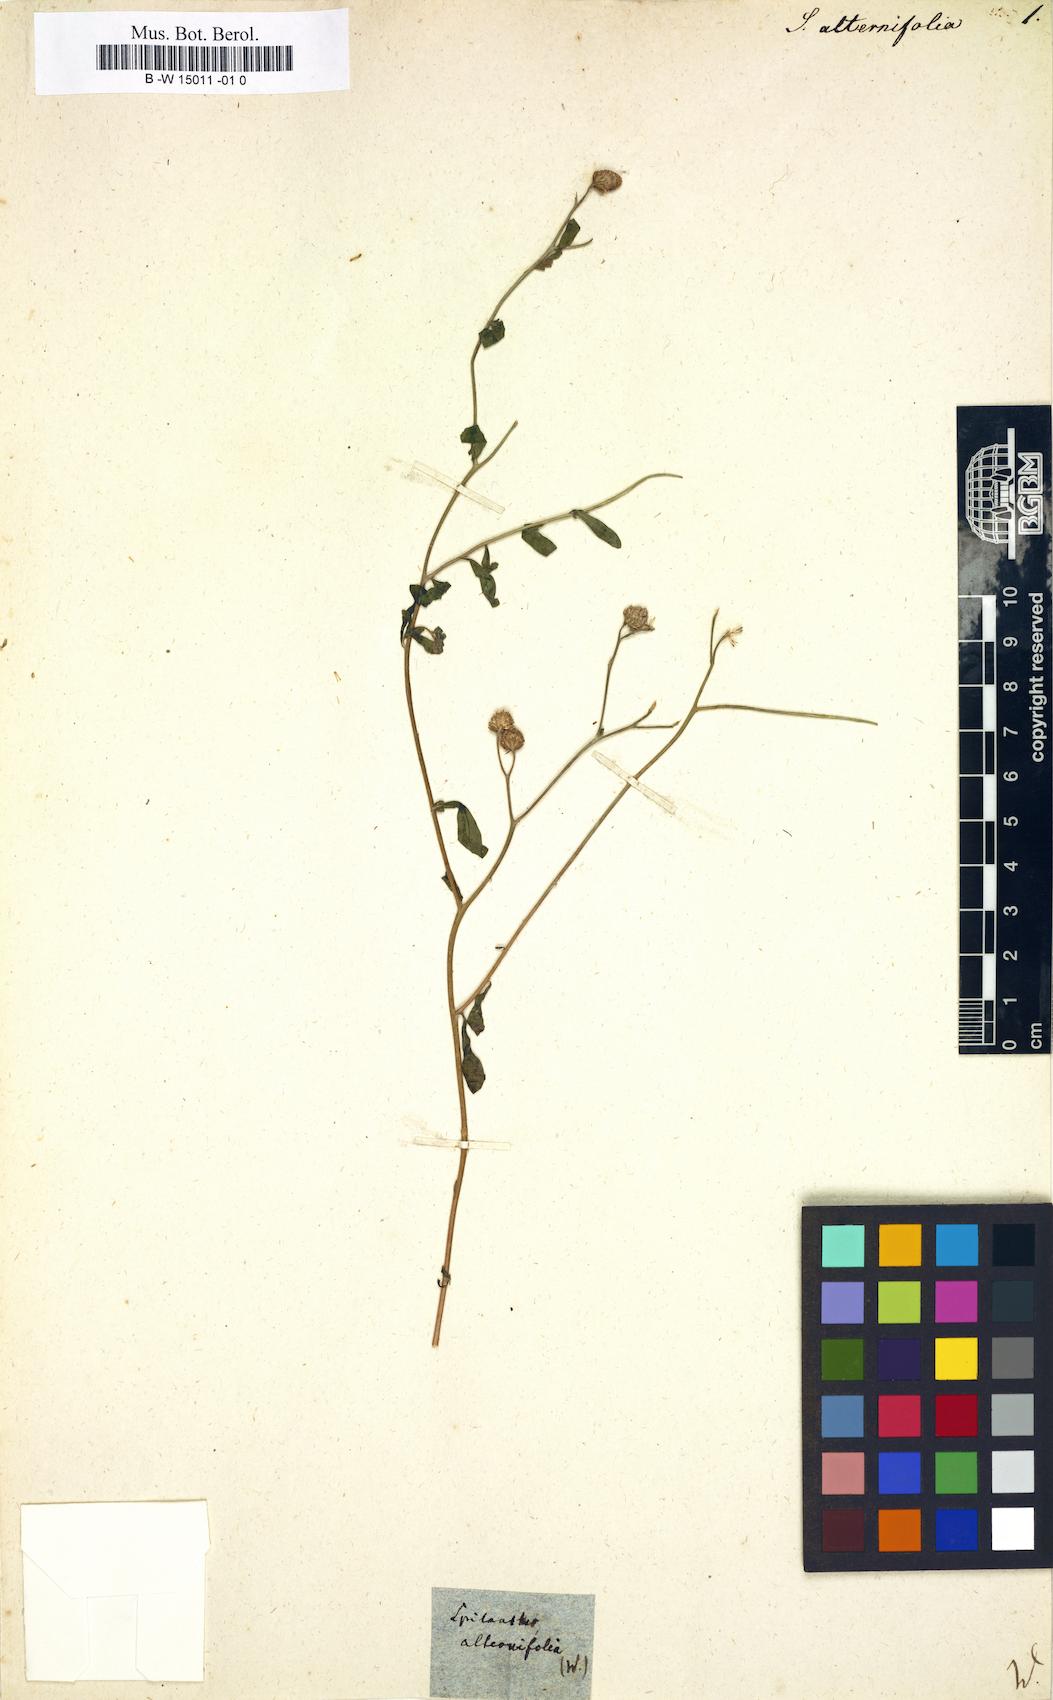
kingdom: Plantae
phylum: Tracheophyta
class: Magnoliopsida
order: Asterales
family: Asteraceae
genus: Spilanthes
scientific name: Spilanthes
